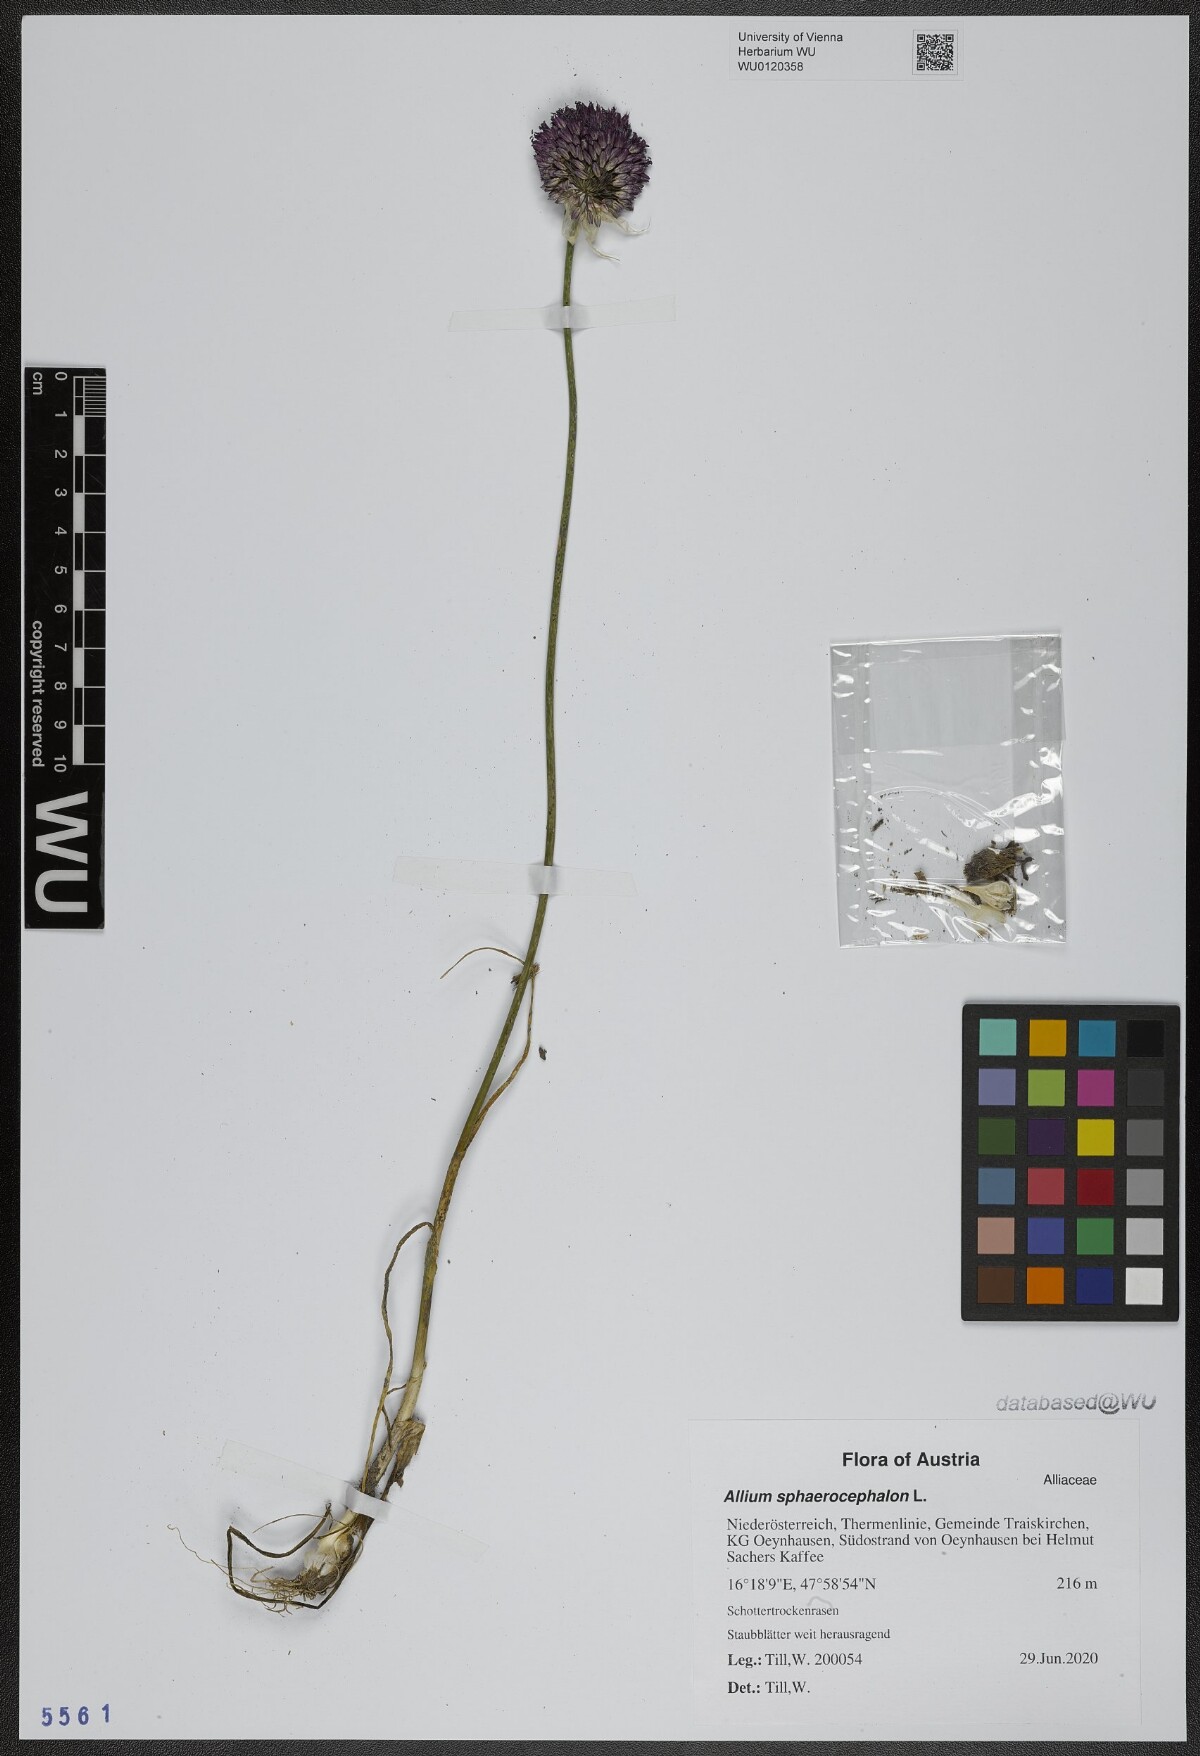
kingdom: Plantae
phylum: Tracheophyta
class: Liliopsida
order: Asparagales
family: Amaryllidaceae
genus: Allium
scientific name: Allium sphaerocephalon
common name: Round-headed leek
